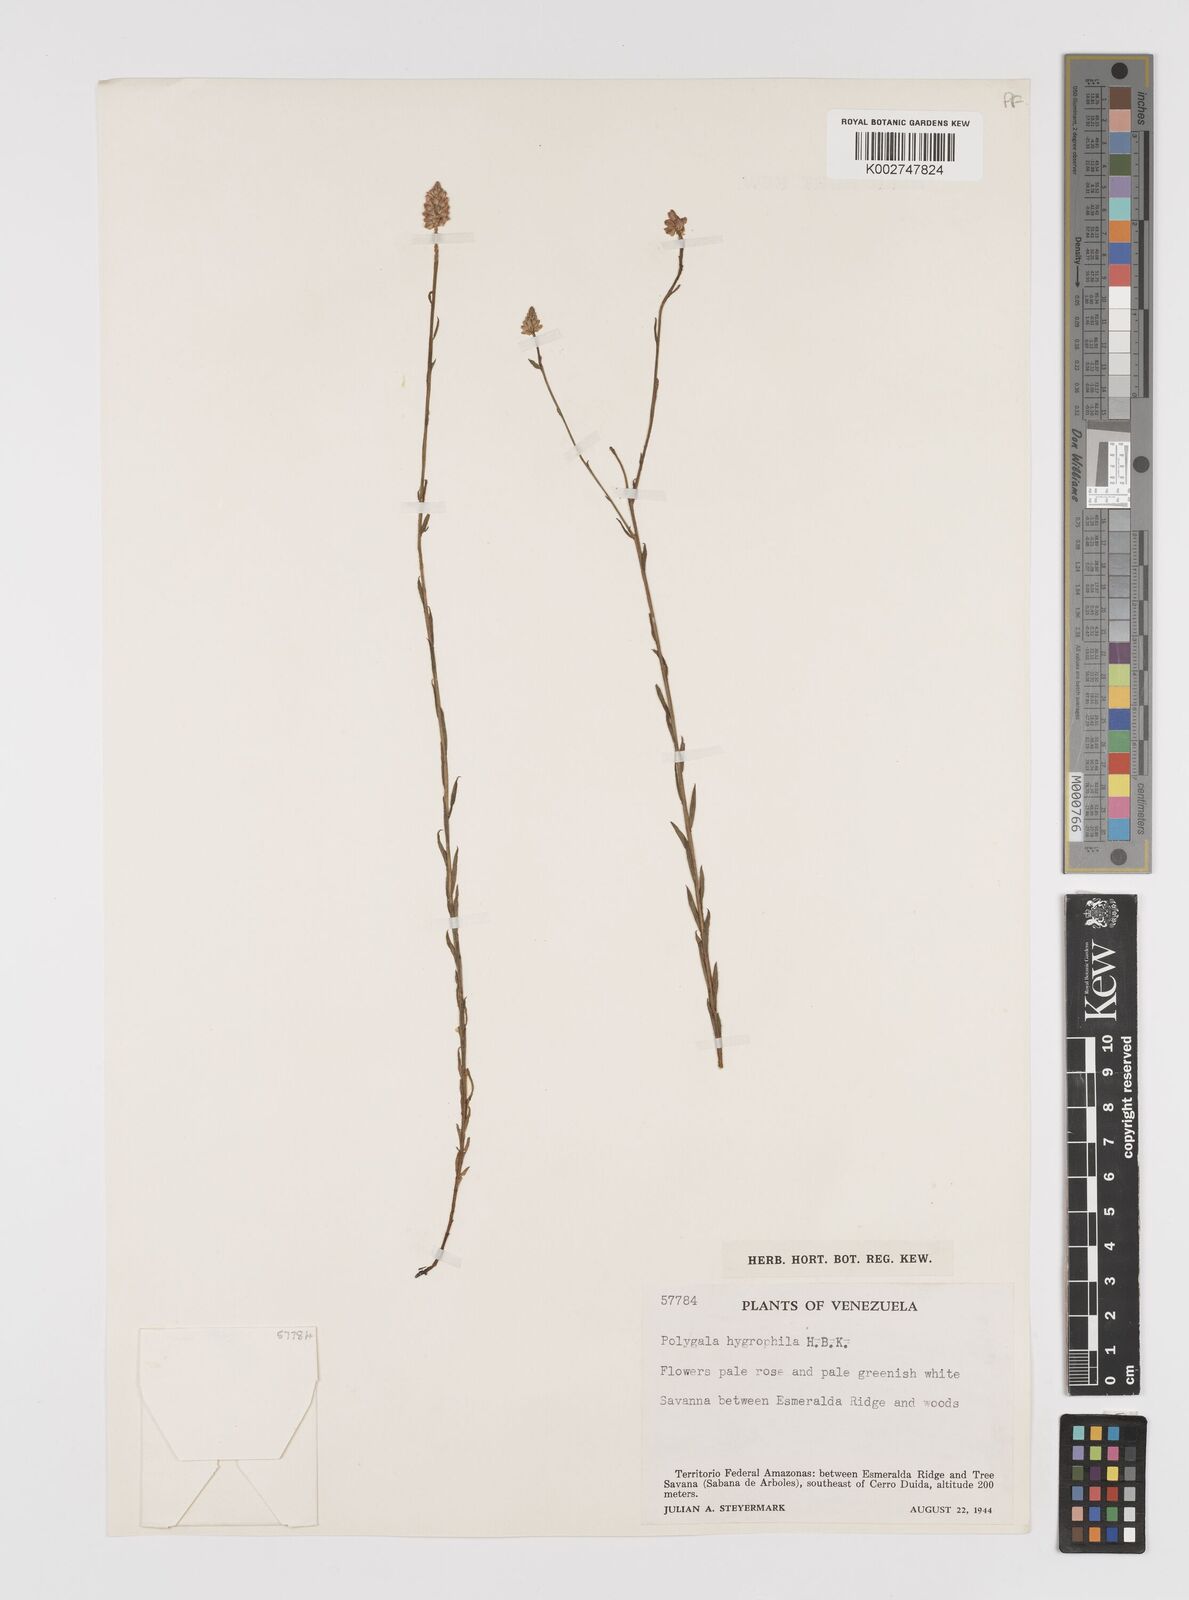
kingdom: Plantae
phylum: Tracheophyta
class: Magnoliopsida
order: Fabales
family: Polygalaceae
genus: Polygala
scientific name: Polygala hygrophila
